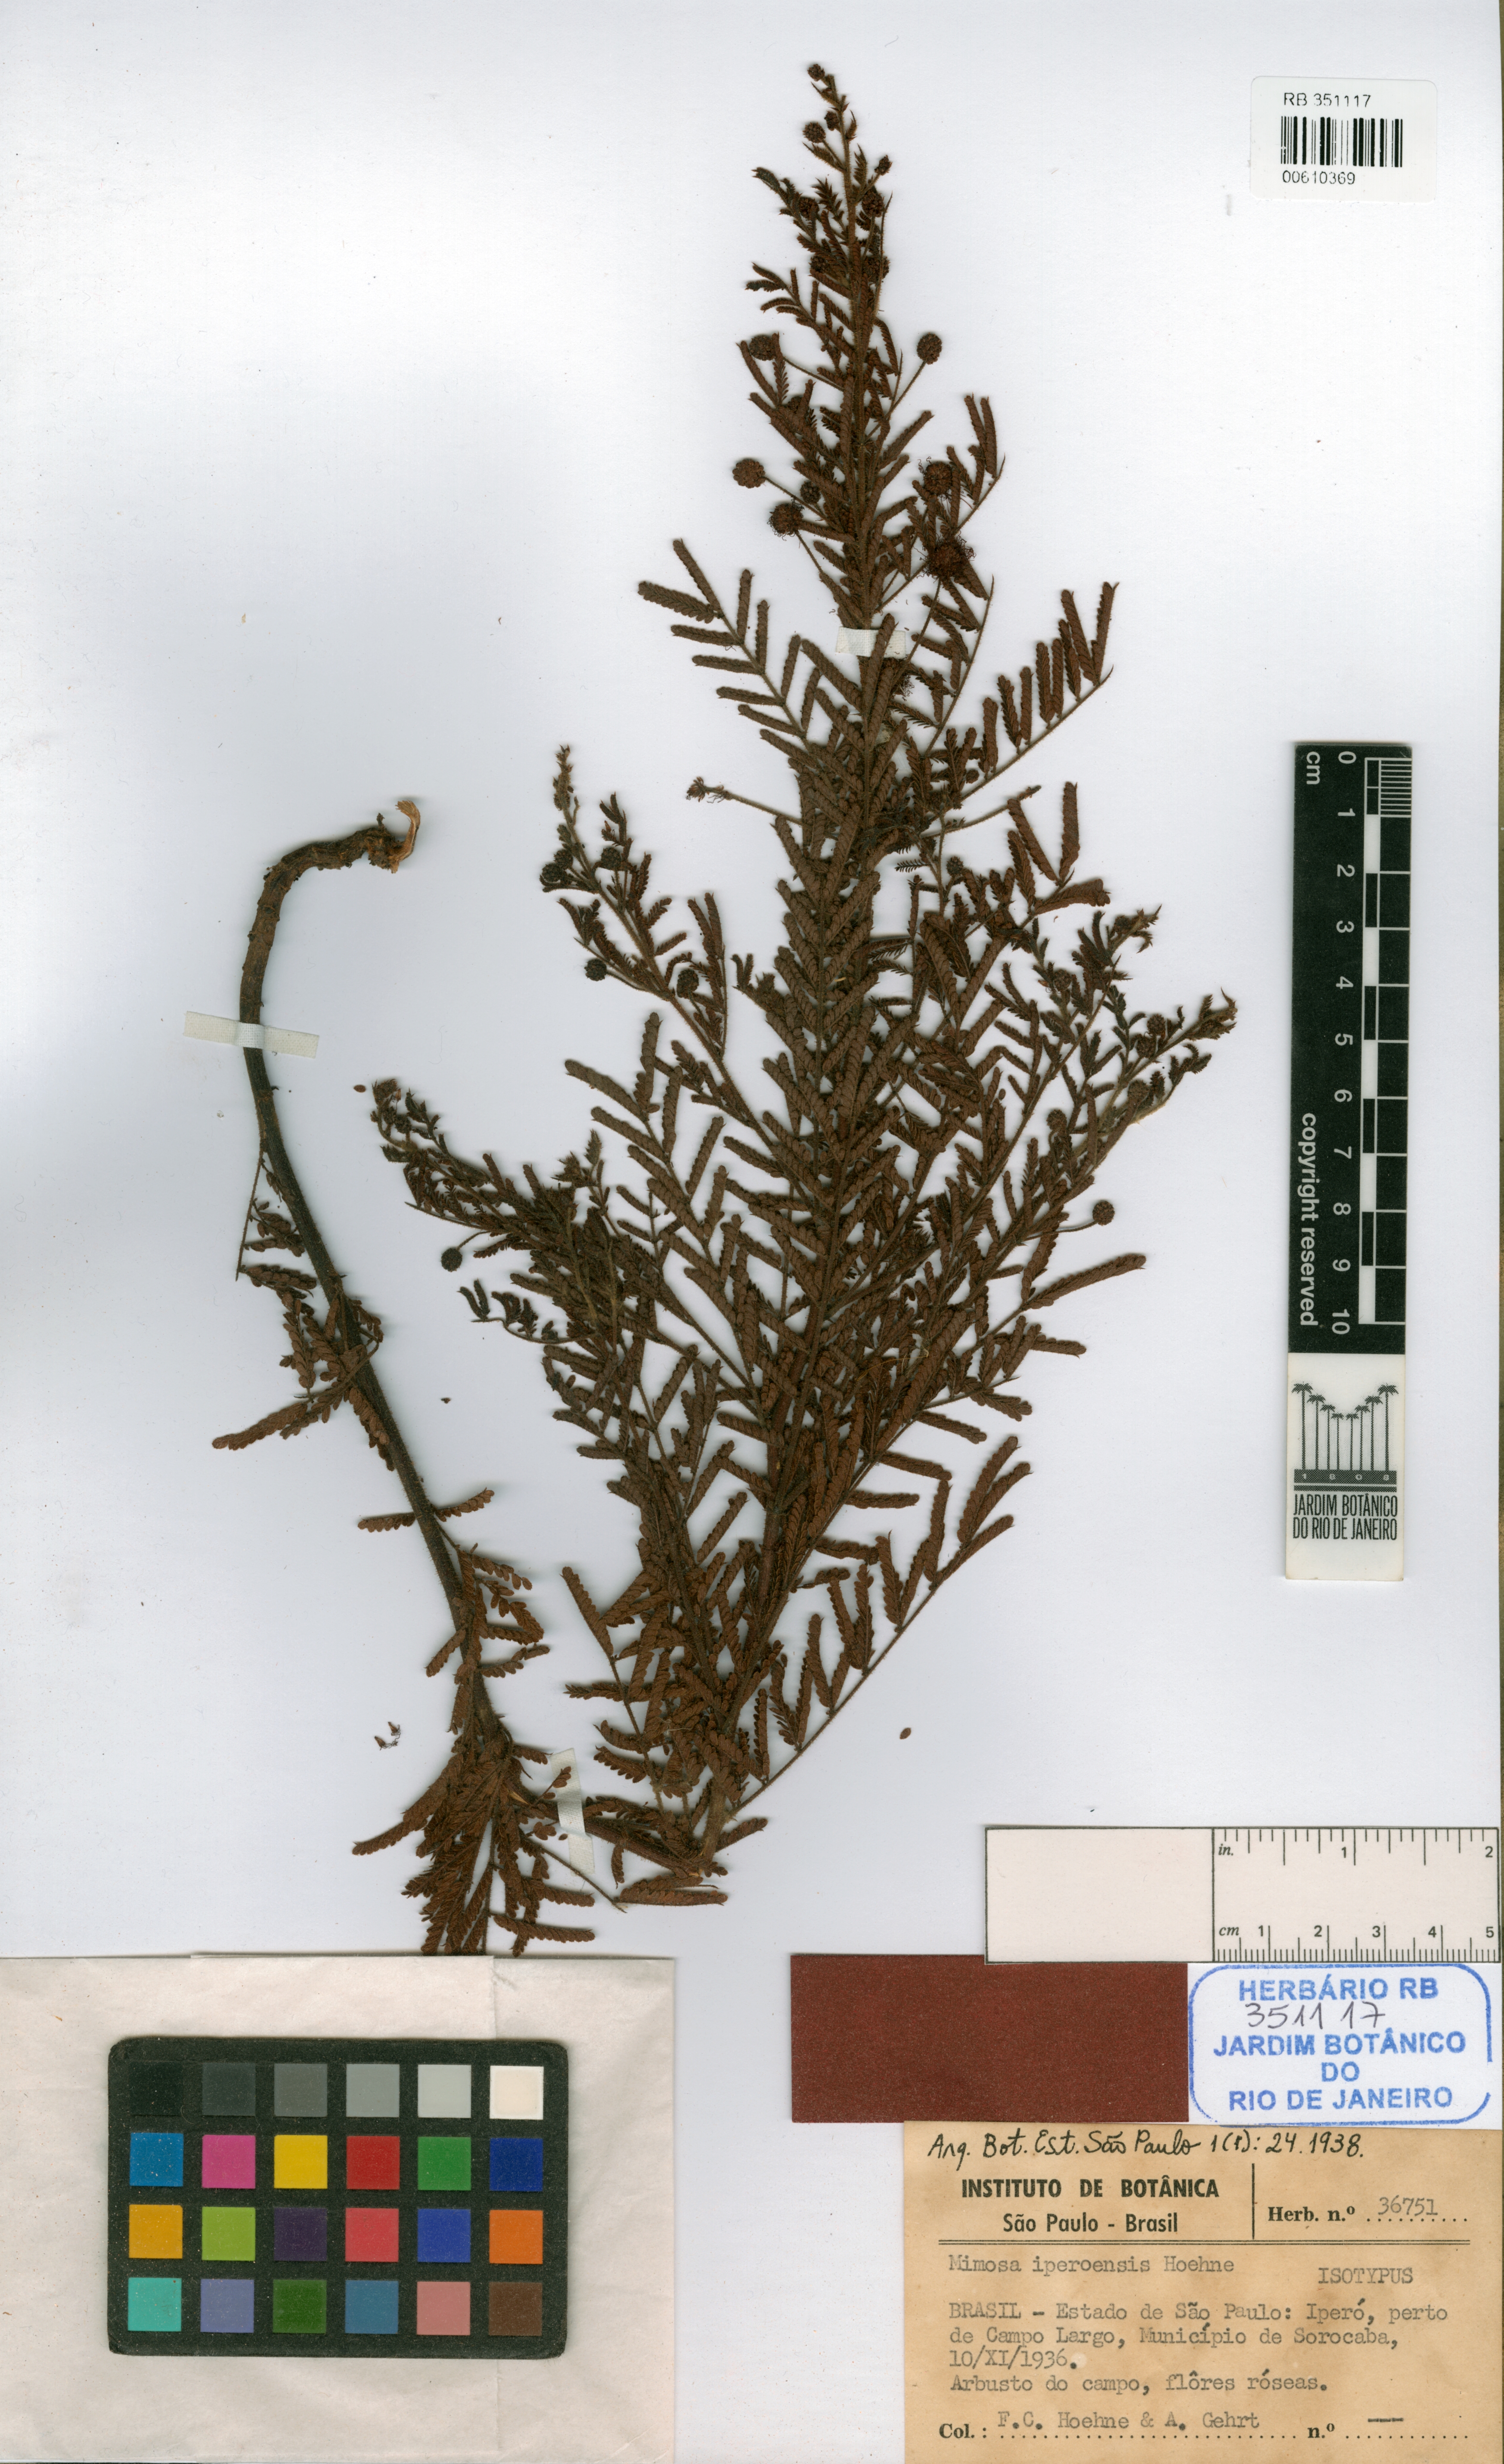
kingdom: Plantae
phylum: Tracheophyta
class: Magnoliopsida
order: Fabales
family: Fabaceae
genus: Mimosa
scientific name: Mimosa iperoensis
